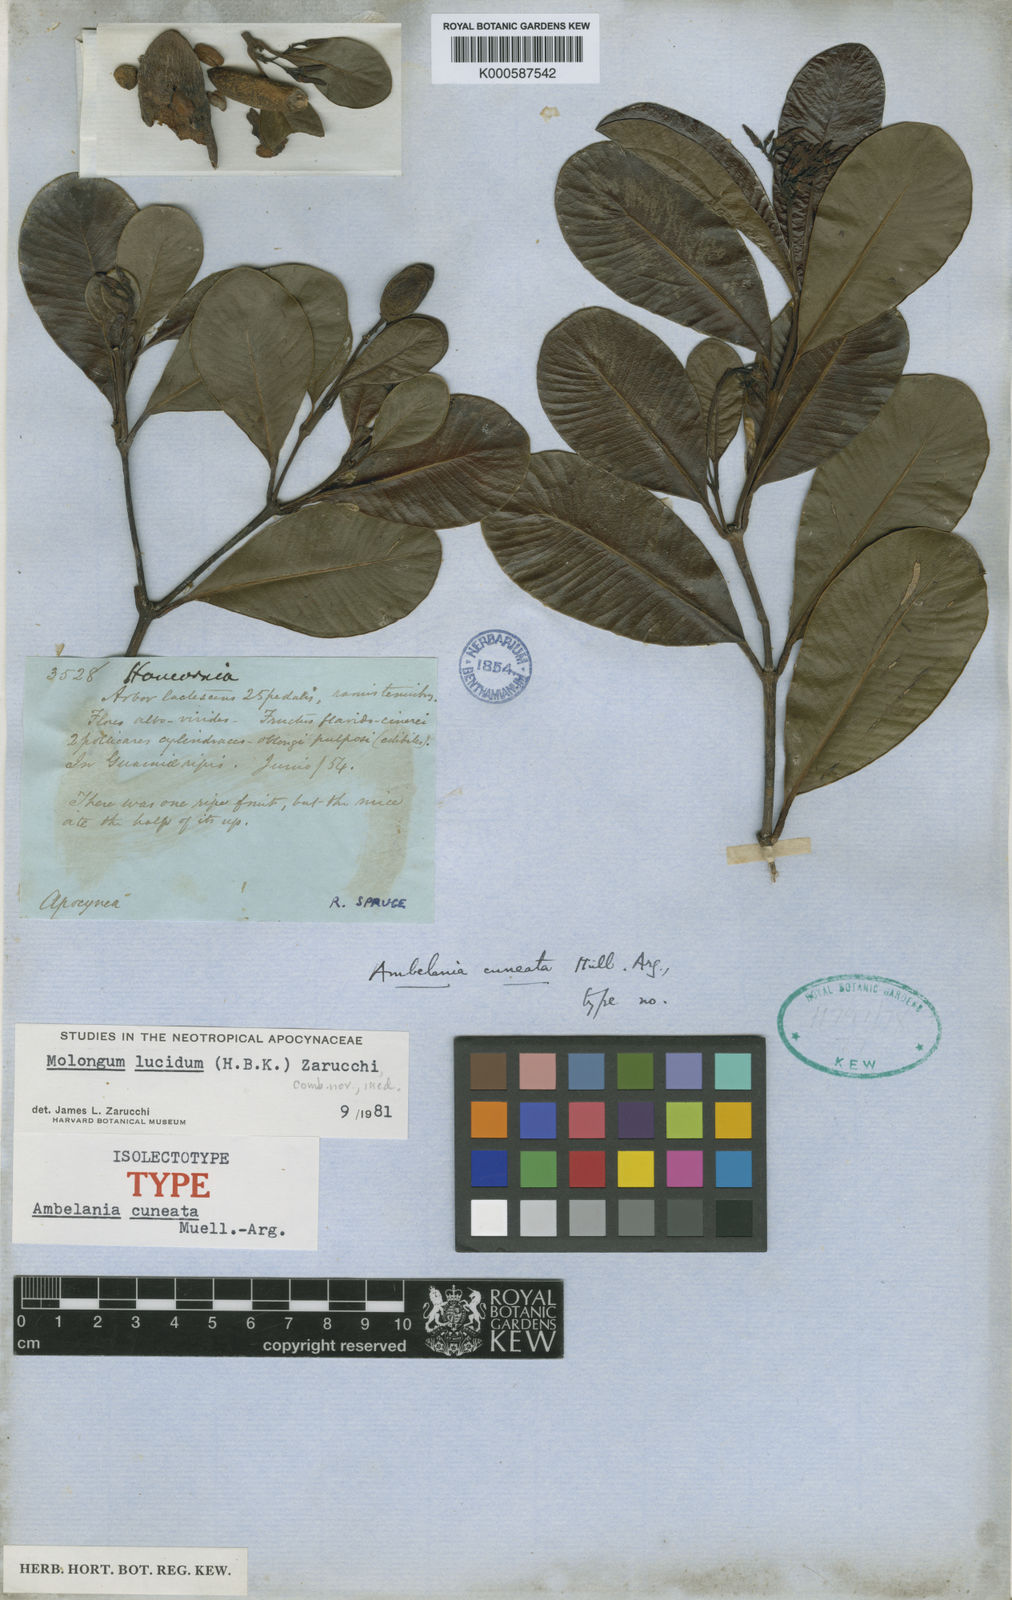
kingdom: Plantae
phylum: Tracheophyta
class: Magnoliopsida
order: Gentianales
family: Apocynaceae
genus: Molongum
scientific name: Molongum lucidum
